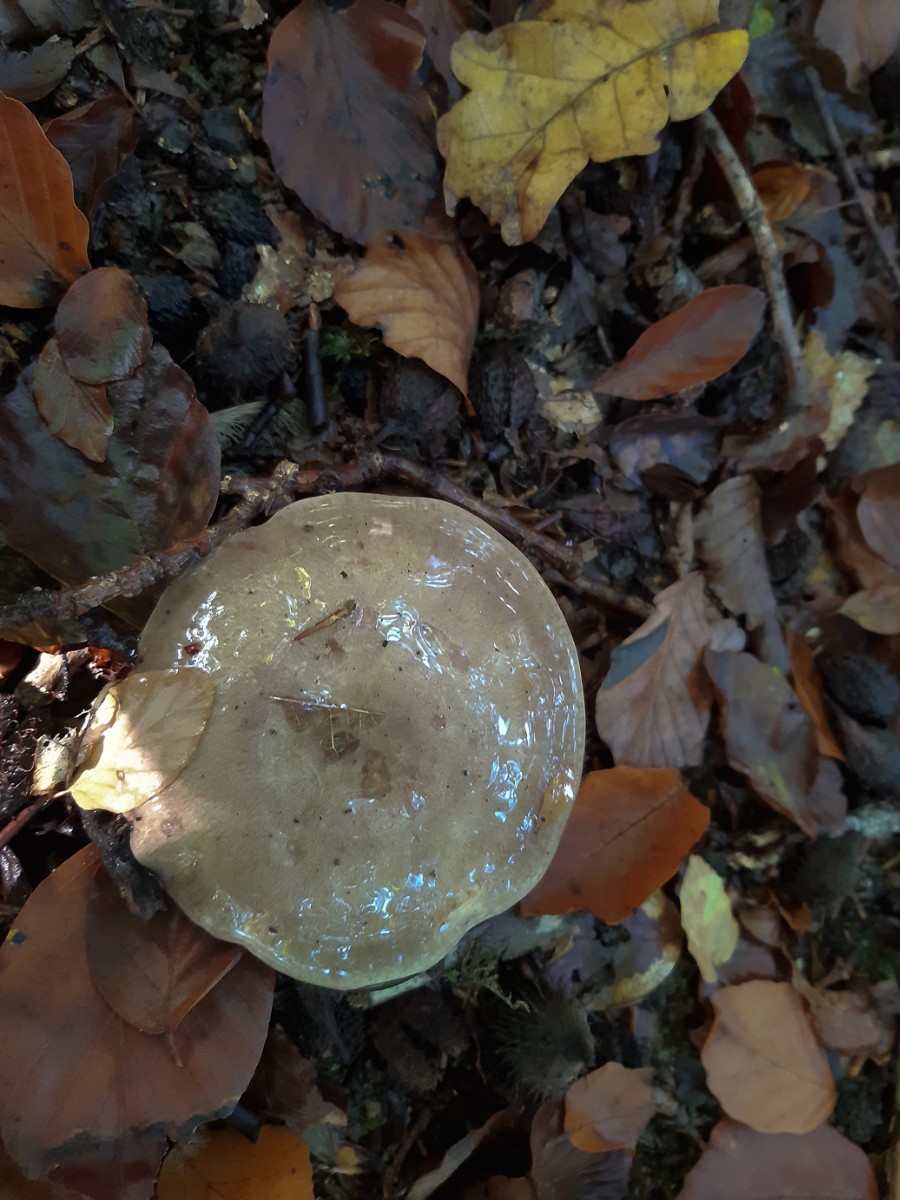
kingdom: Fungi
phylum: Basidiomycota
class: Agaricomycetes
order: Russulales
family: Russulaceae
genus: Lactarius
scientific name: Lactarius blennius
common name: dråbeplettet mælkehat
